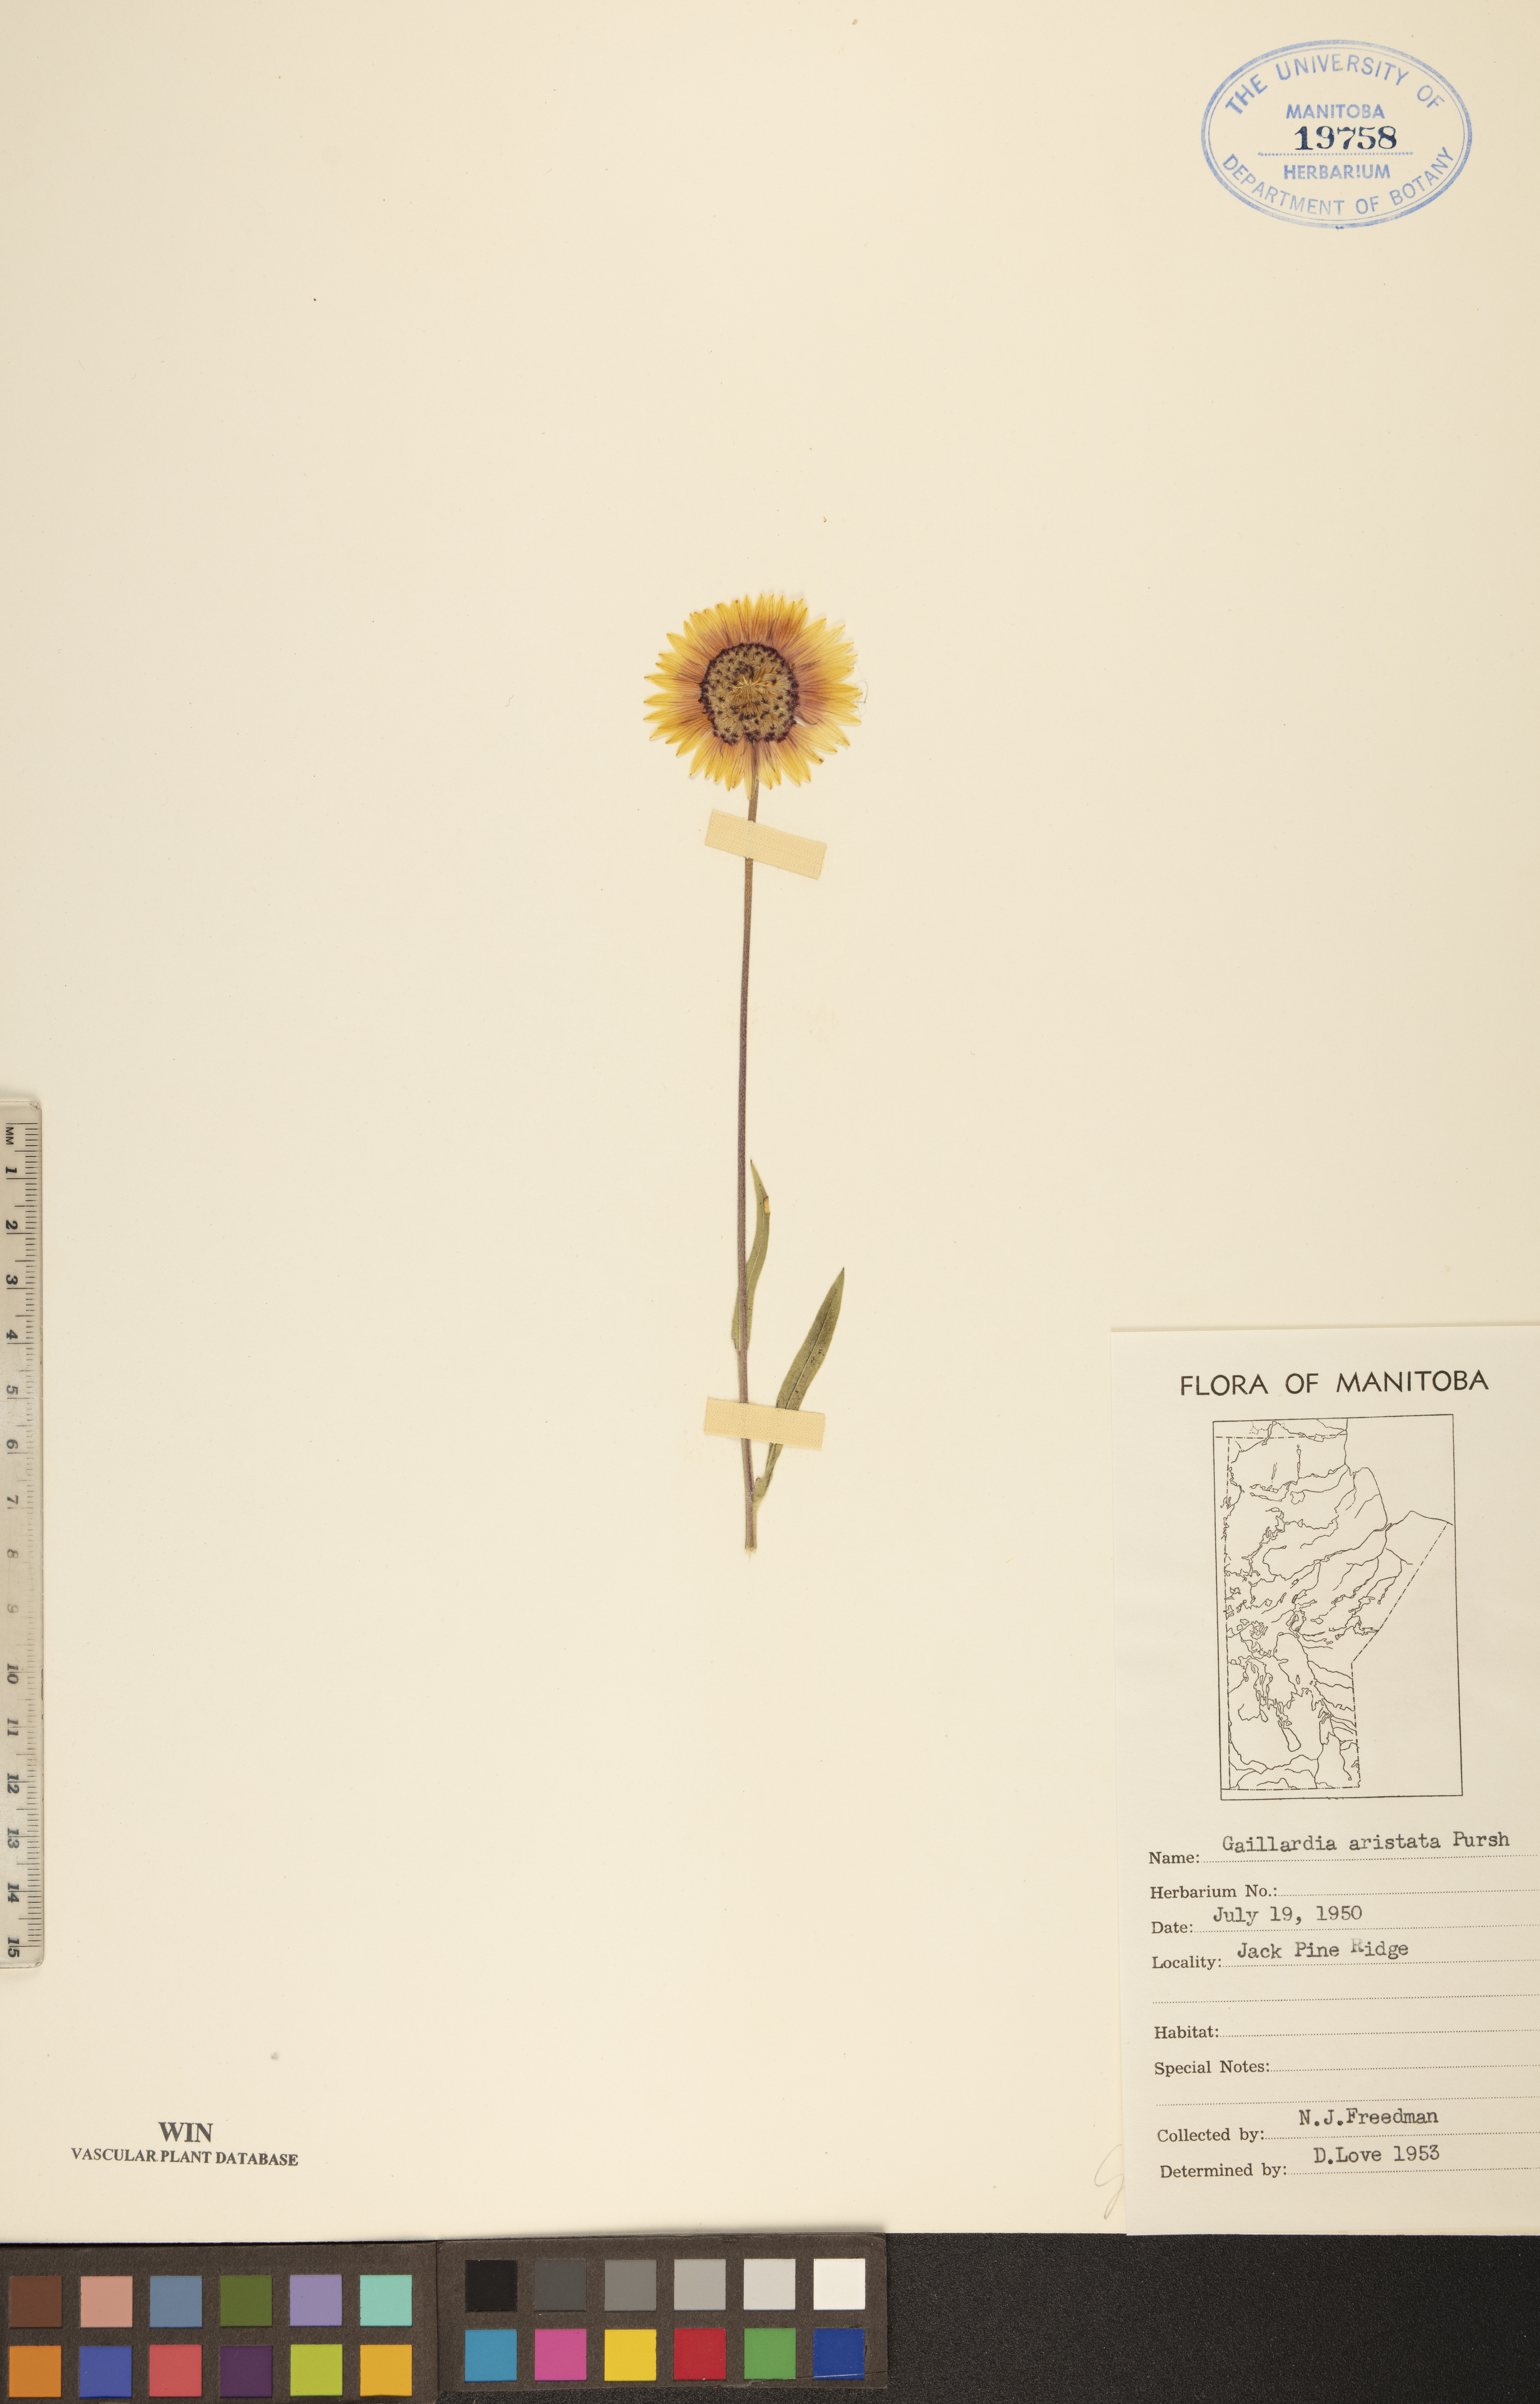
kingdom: Plantae
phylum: Tracheophyta
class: Magnoliopsida
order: Asterales
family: Asteraceae
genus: Gaillardia
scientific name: Gaillardia aristata
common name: Blanket-flower
